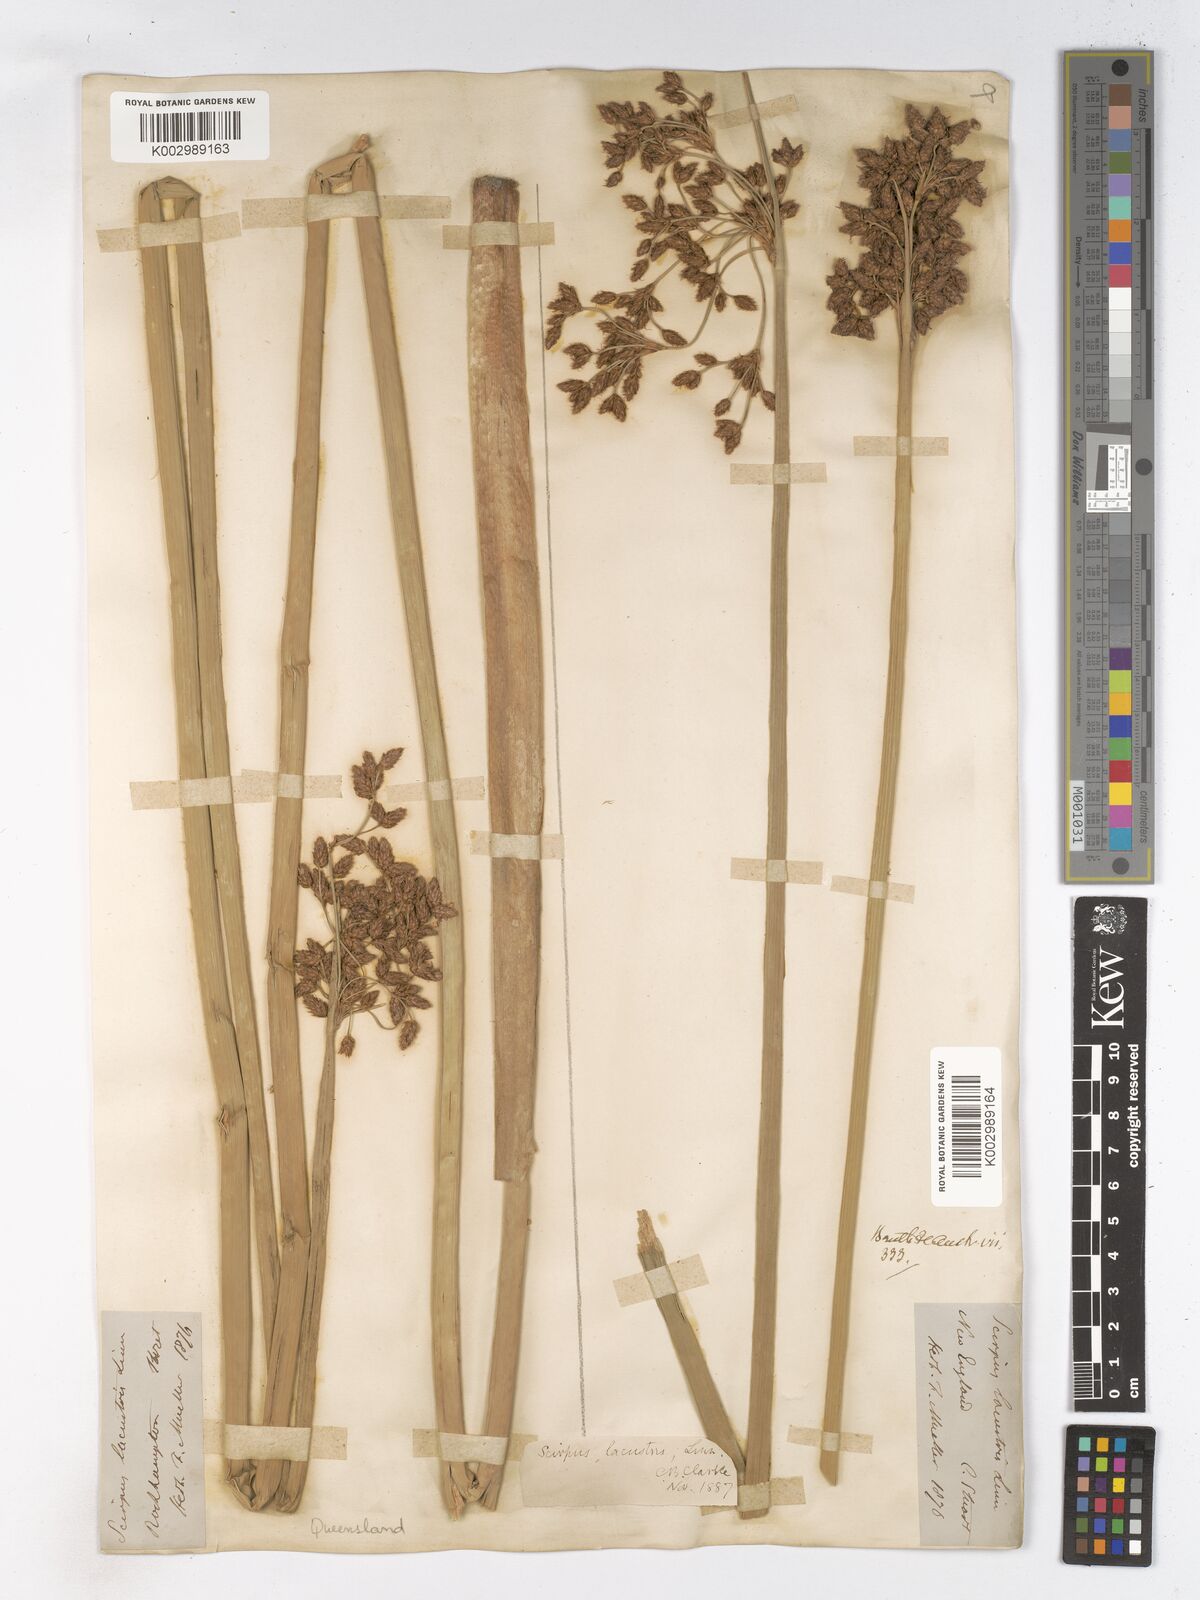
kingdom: Plantae
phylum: Tracheophyta
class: Liliopsida
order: Poales
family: Cyperaceae
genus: Schoenoplectus
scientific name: Schoenoplectus lacustris
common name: Common club-rush
